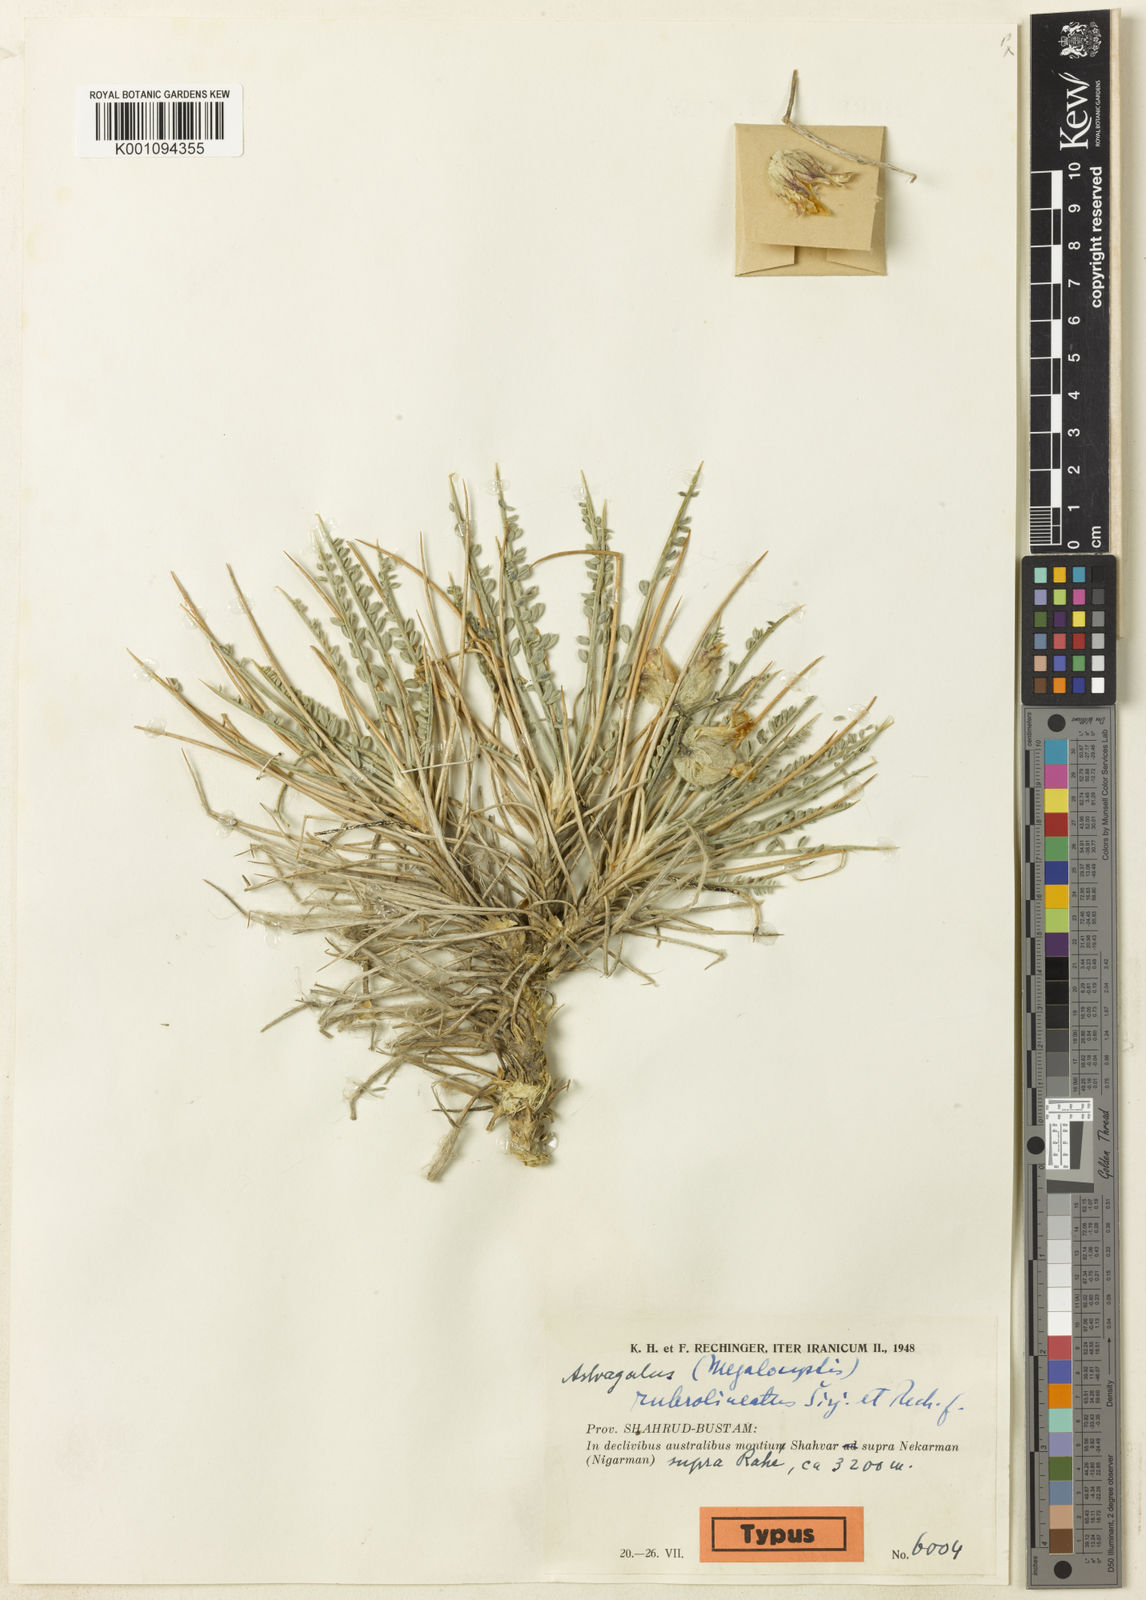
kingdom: Plantae
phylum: Tracheophyta
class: Magnoliopsida
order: Fabales
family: Fabaceae
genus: Astragalus
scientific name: Astragalus
